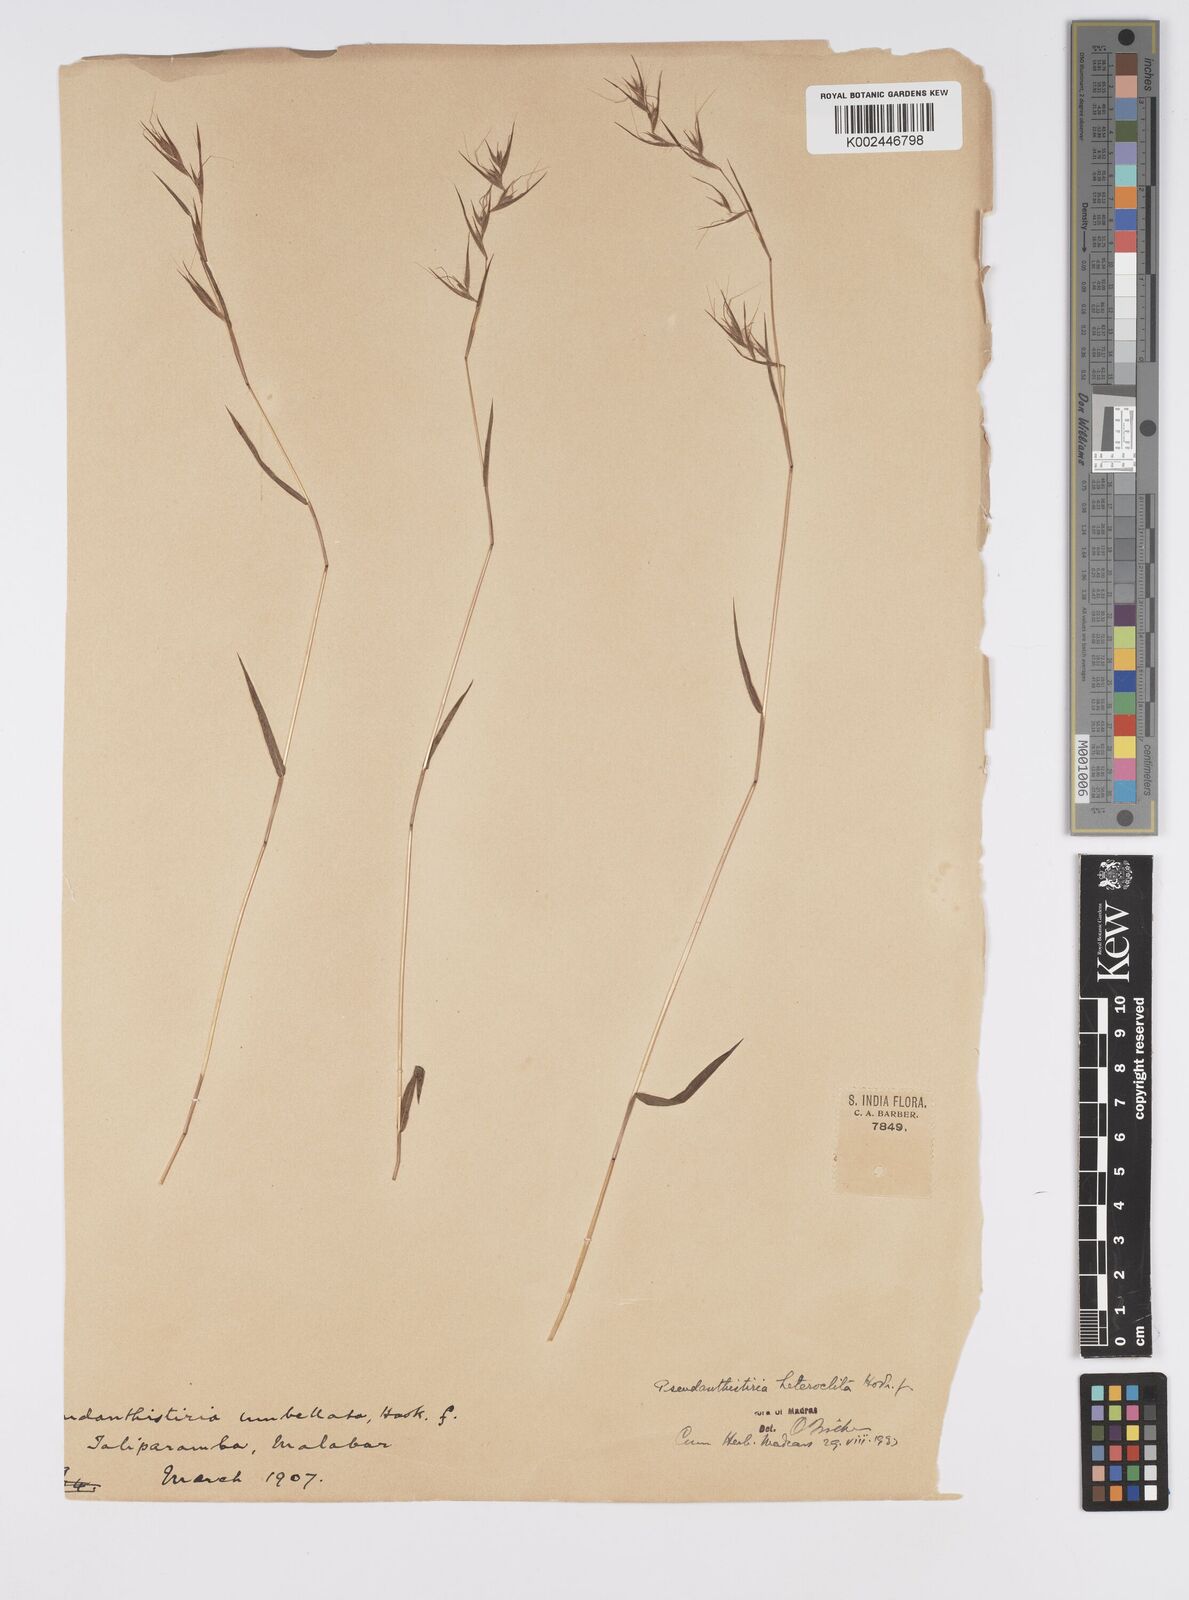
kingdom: Plantae
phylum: Tracheophyta
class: Liliopsida
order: Poales
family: Poaceae
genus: Pseudanthistiria
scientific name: Pseudanthistiria heteroclita
